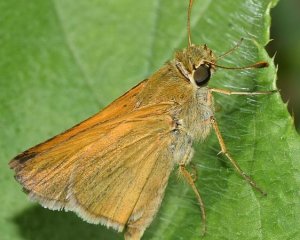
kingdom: Animalia
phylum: Arthropoda
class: Insecta
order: Lepidoptera
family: Hesperiidae
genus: Atrytone
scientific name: Atrytone delaware
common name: Delaware Skipper
